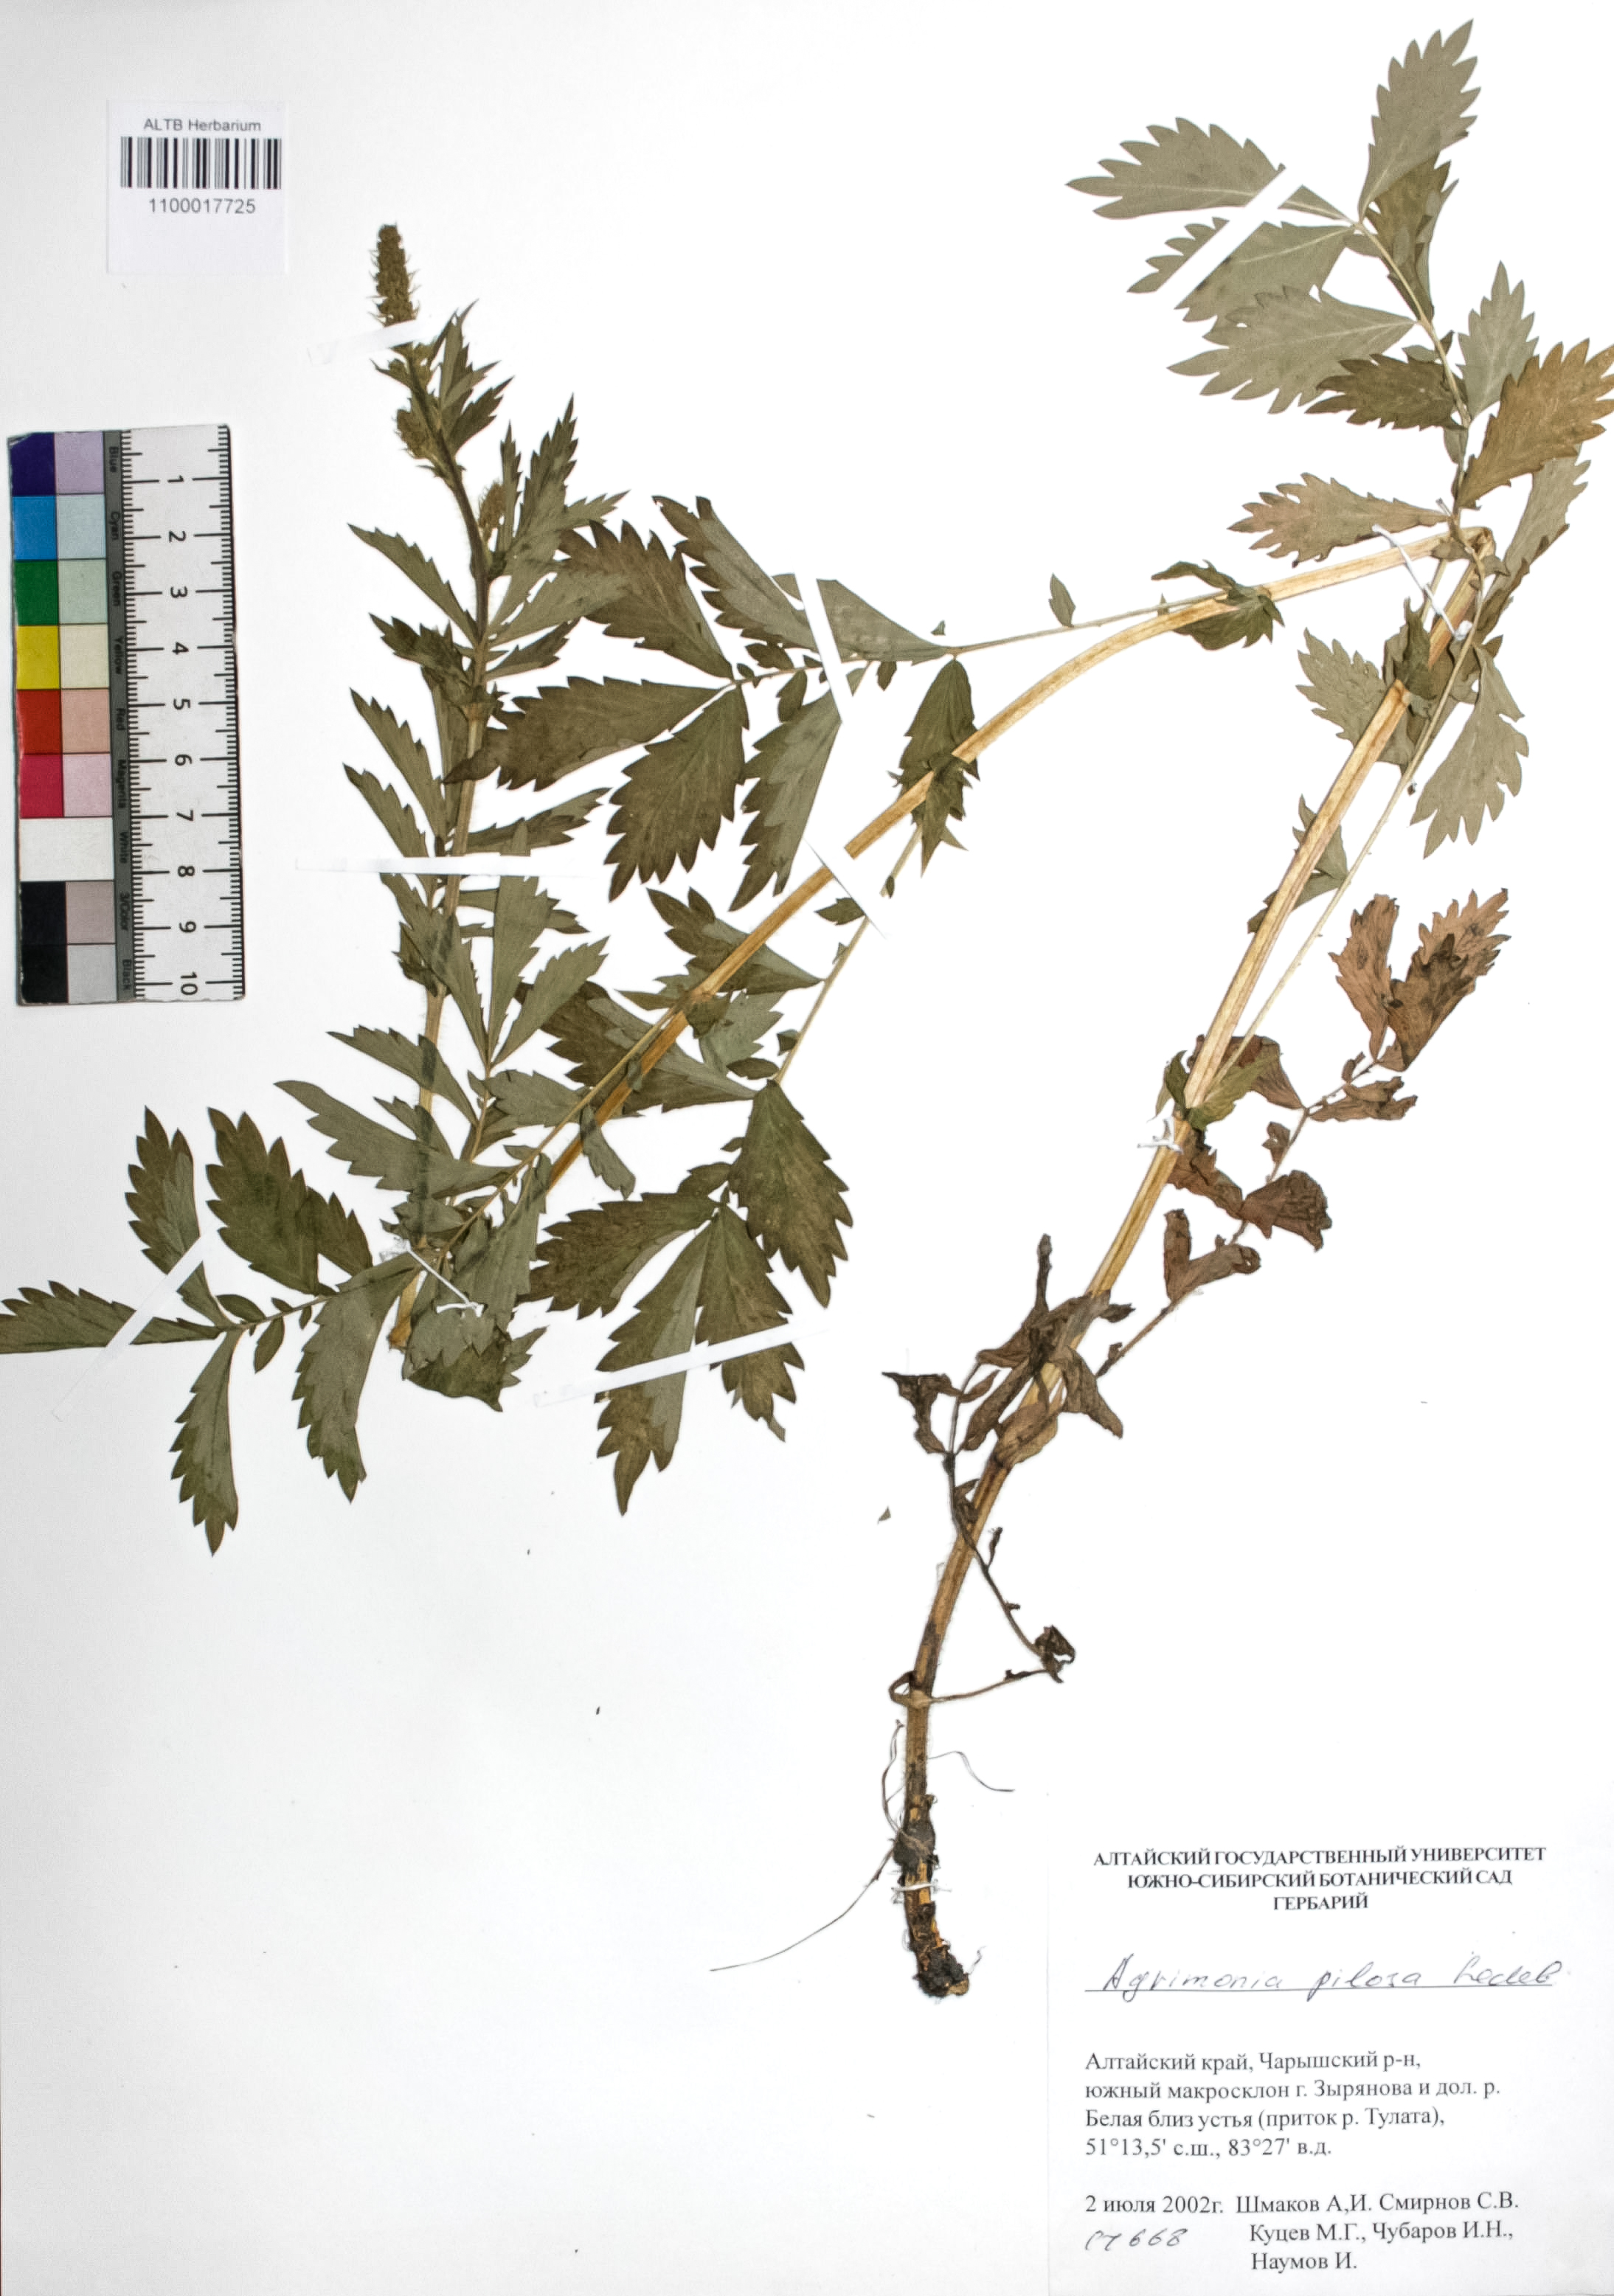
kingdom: Plantae
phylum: Tracheophyta
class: Magnoliopsida
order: Rosales
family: Rosaceae
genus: Agrimonia
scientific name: Agrimonia pilosa
